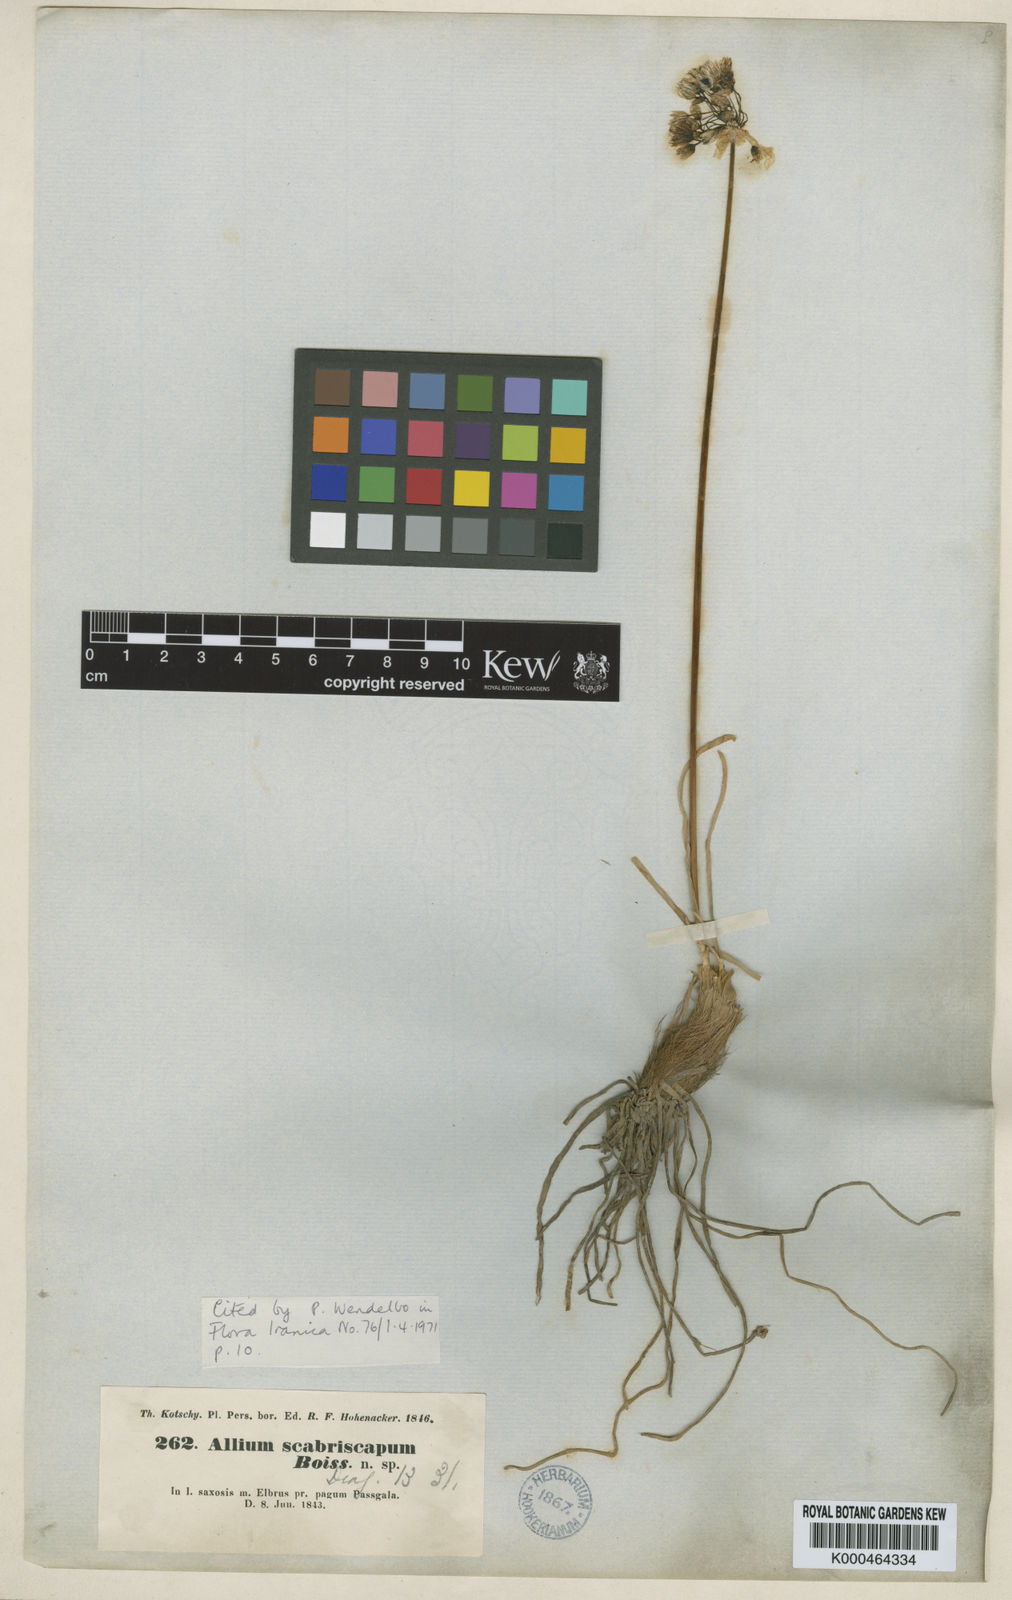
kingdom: Plantae
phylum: Tracheophyta
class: Liliopsida
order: Asparagales
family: Amaryllidaceae
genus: Allium
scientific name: Allium scabriscapum
